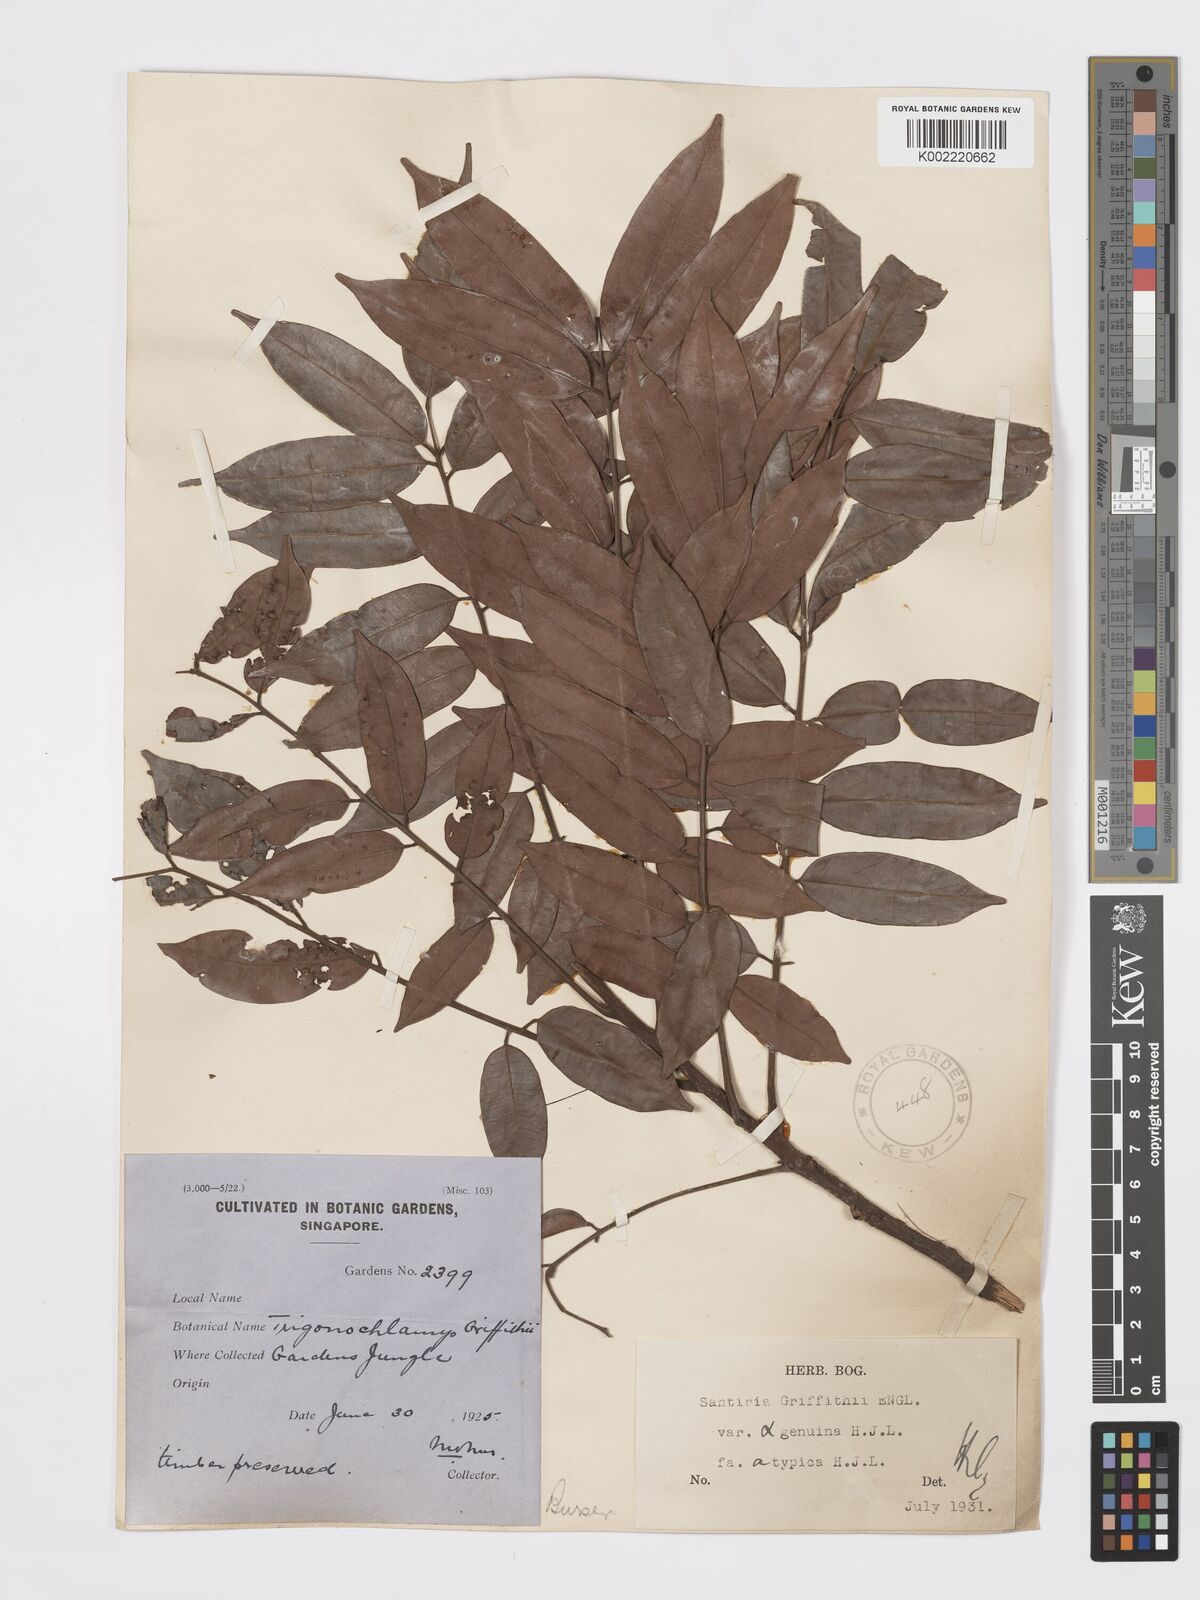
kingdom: Plantae
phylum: Tracheophyta
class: Magnoliopsida
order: Sapindales
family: Burseraceae
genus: Santiria
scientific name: Santiria griffithii
